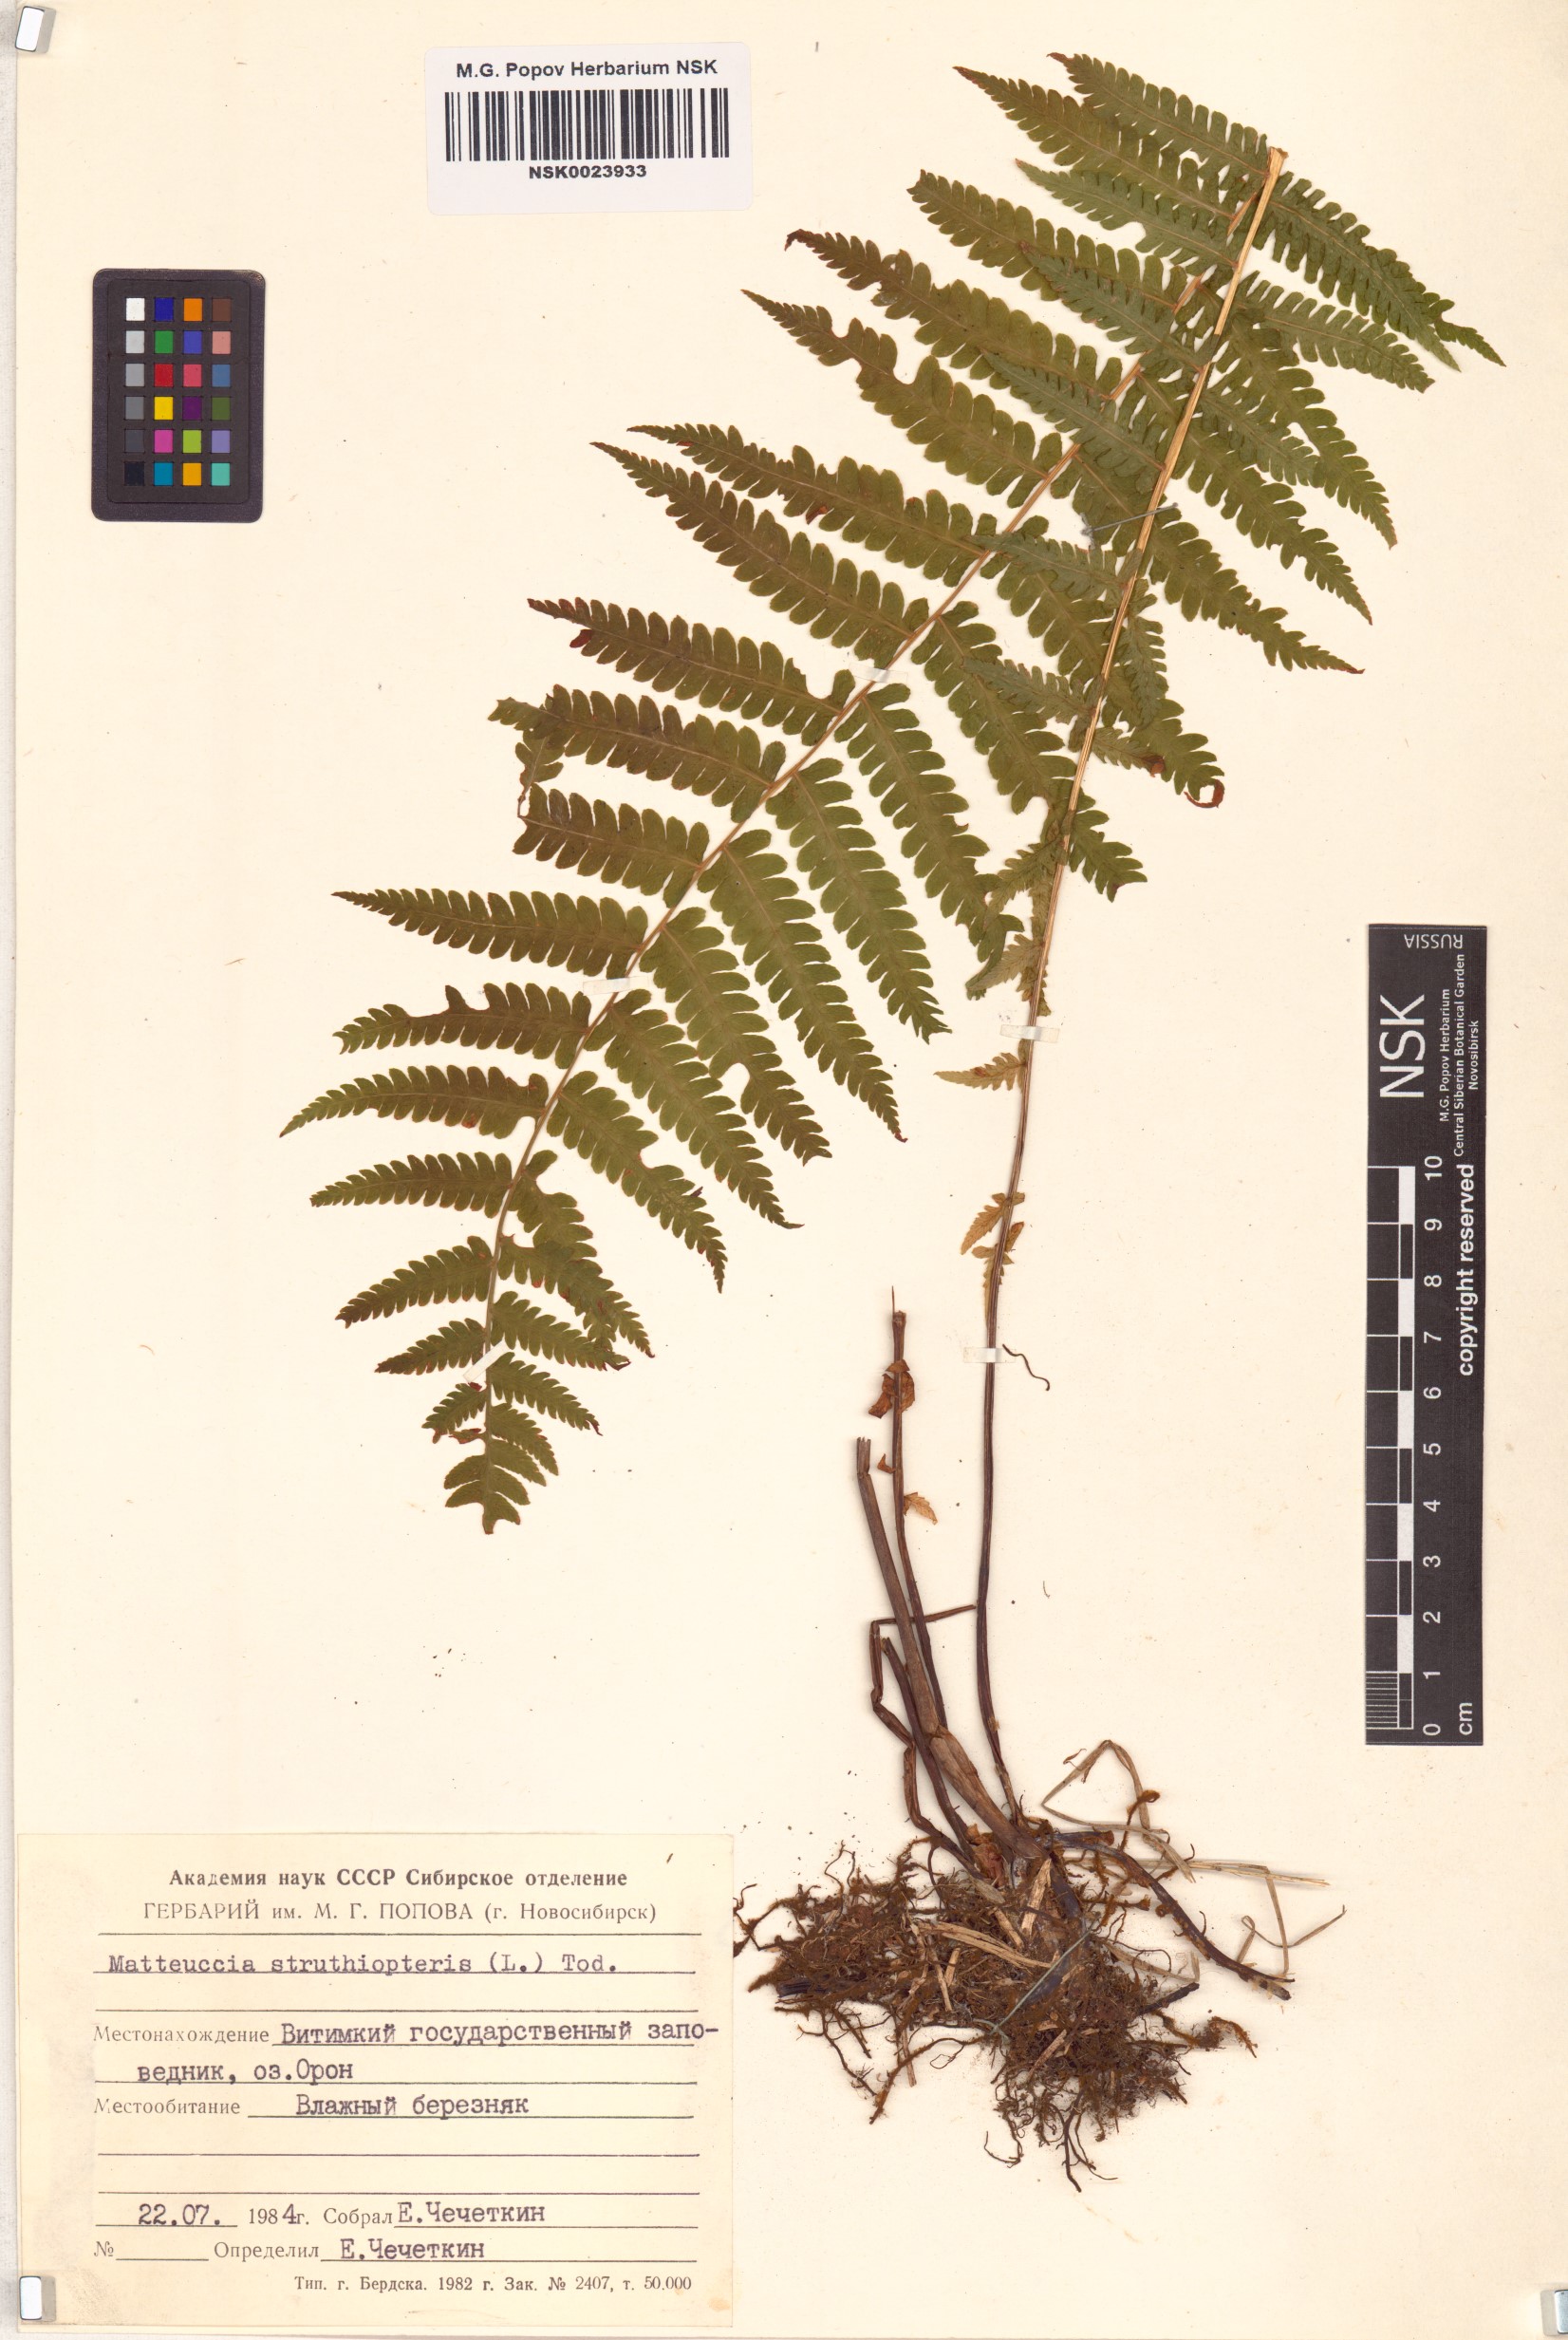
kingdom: Plantae
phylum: Tracheophyta
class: Polypodiopsida
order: Polypodiales
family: Onocleaceae
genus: Matteuccia
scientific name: Matteuccia struthiopteris
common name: Ostrich fern
